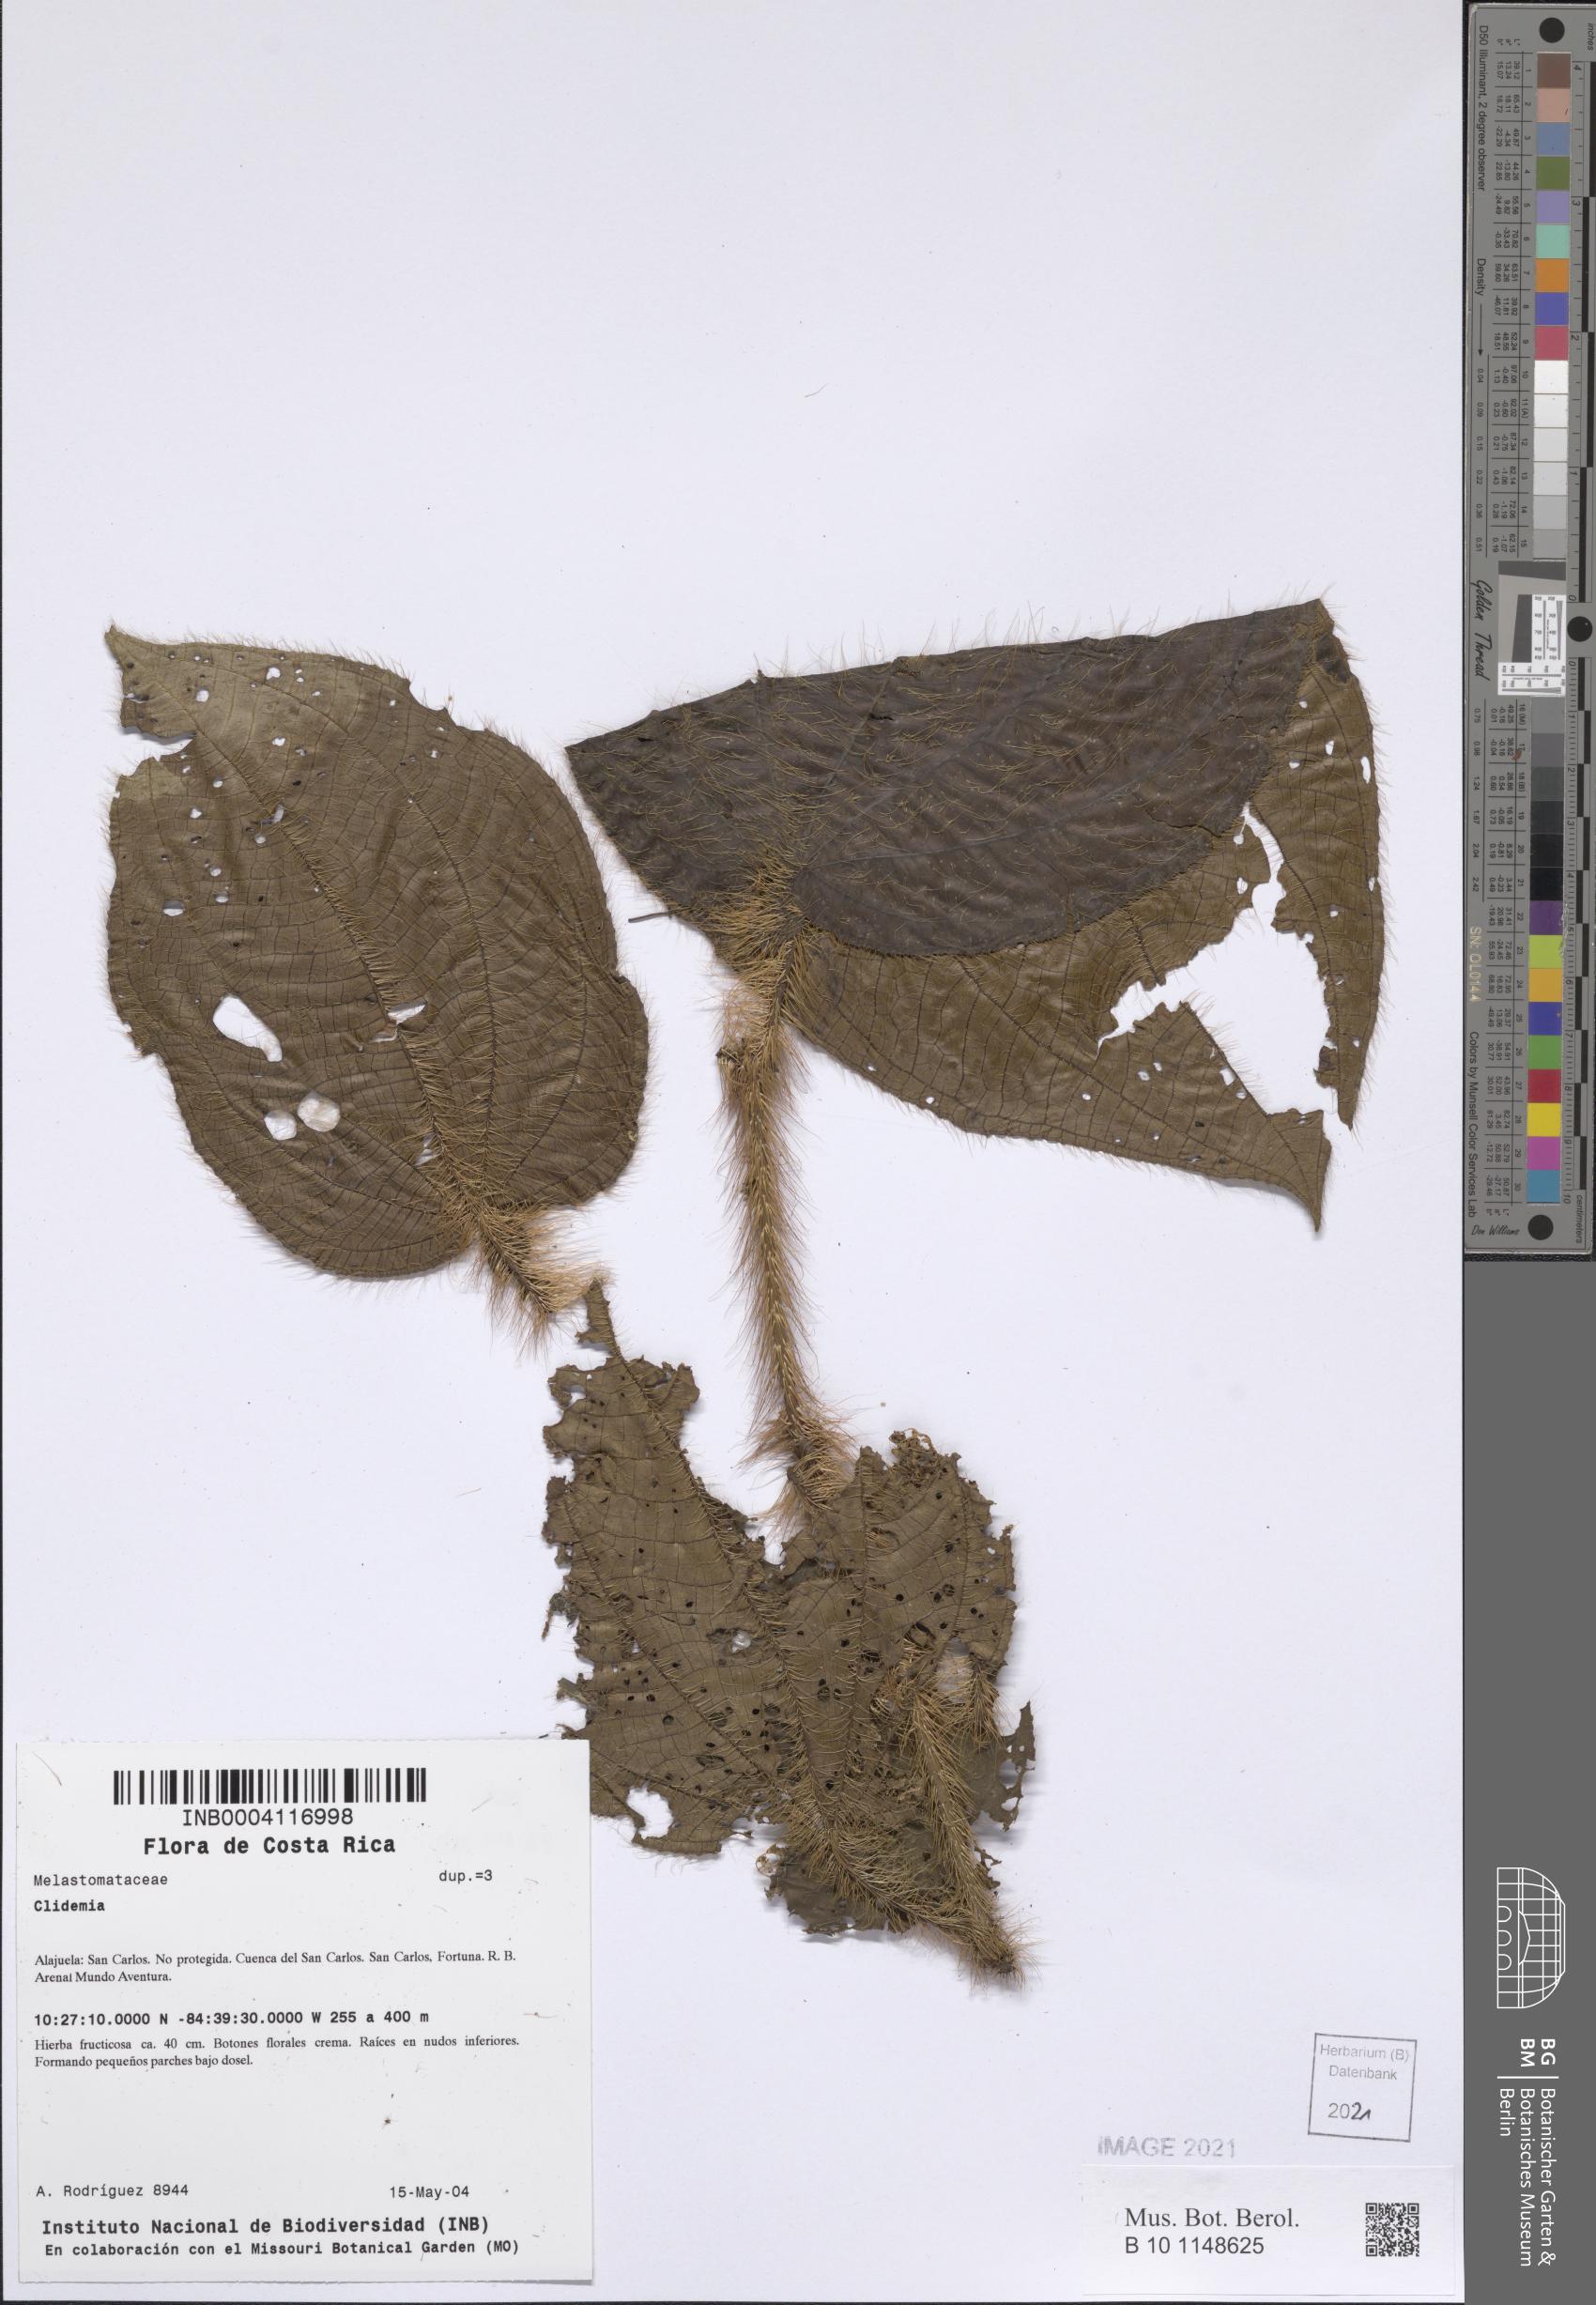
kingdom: Plantae
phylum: Tracheophyta
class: Magnoliopsida
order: Myrtales
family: Melastomataceae
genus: Miconia
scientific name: Miconia
